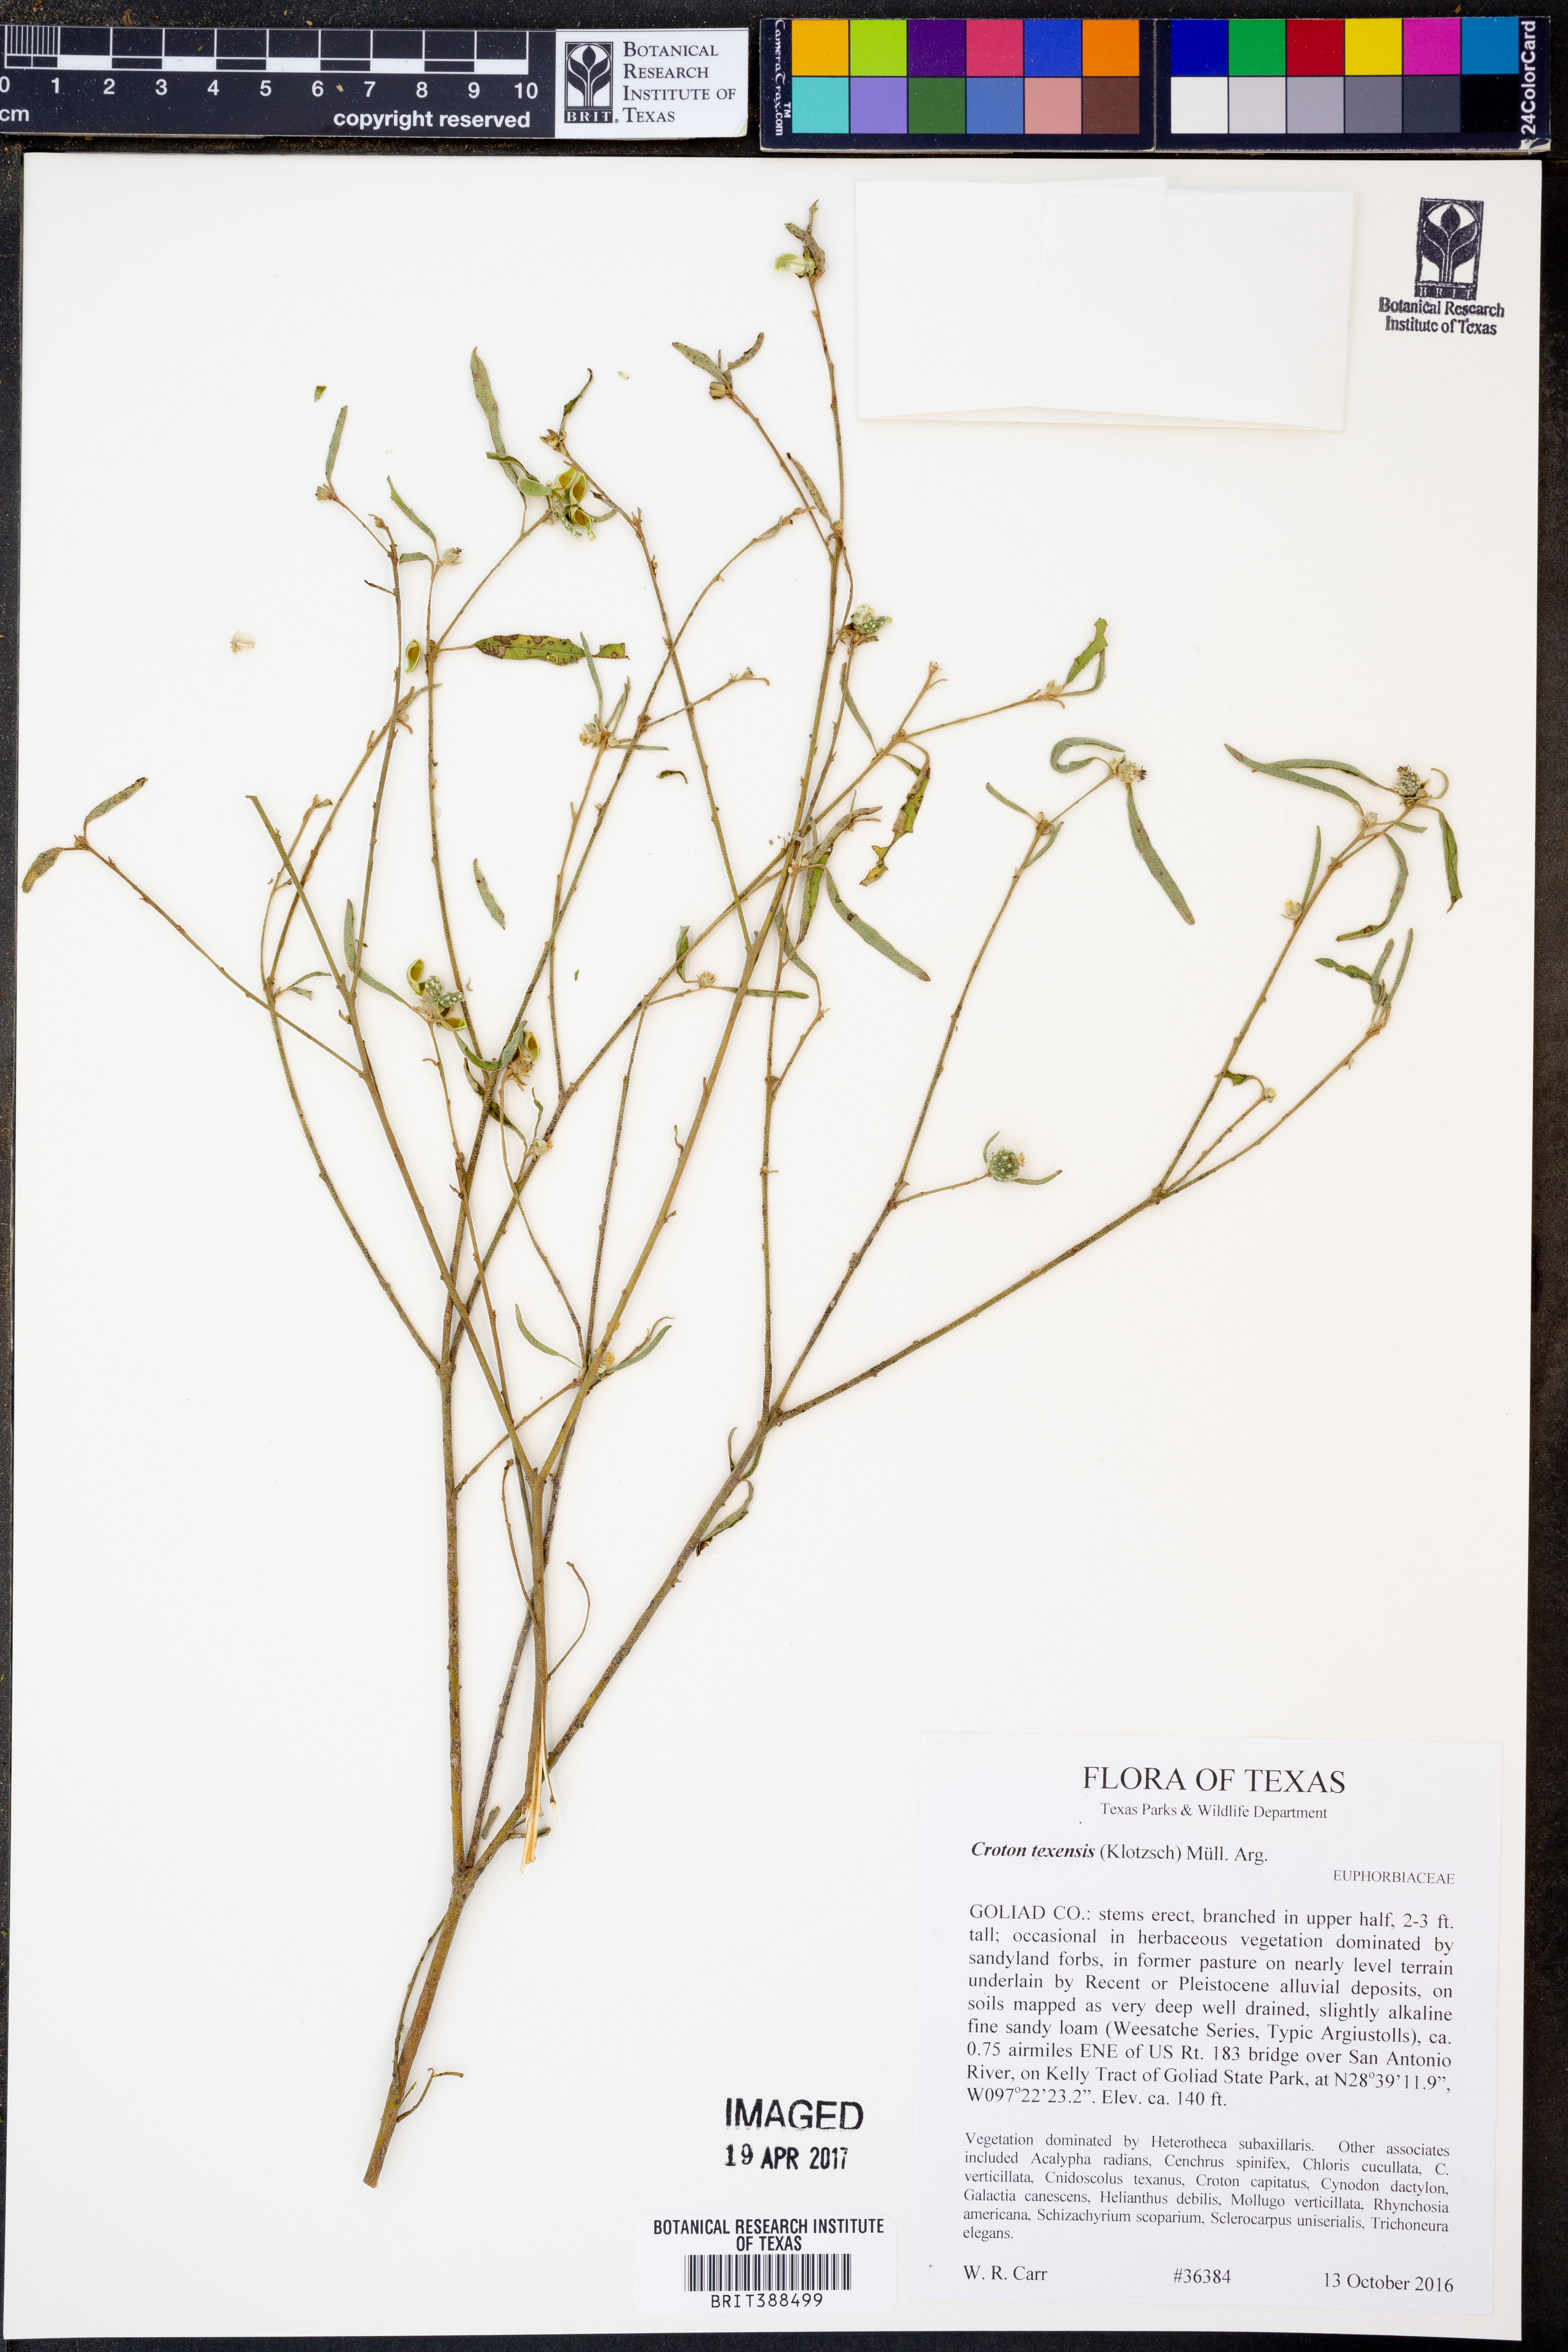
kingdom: Plantae
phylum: Tracheophyta
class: Magnoliopsida
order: Malpighiales
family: Euphorbiaceae
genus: Croton
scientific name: Croton texensis
